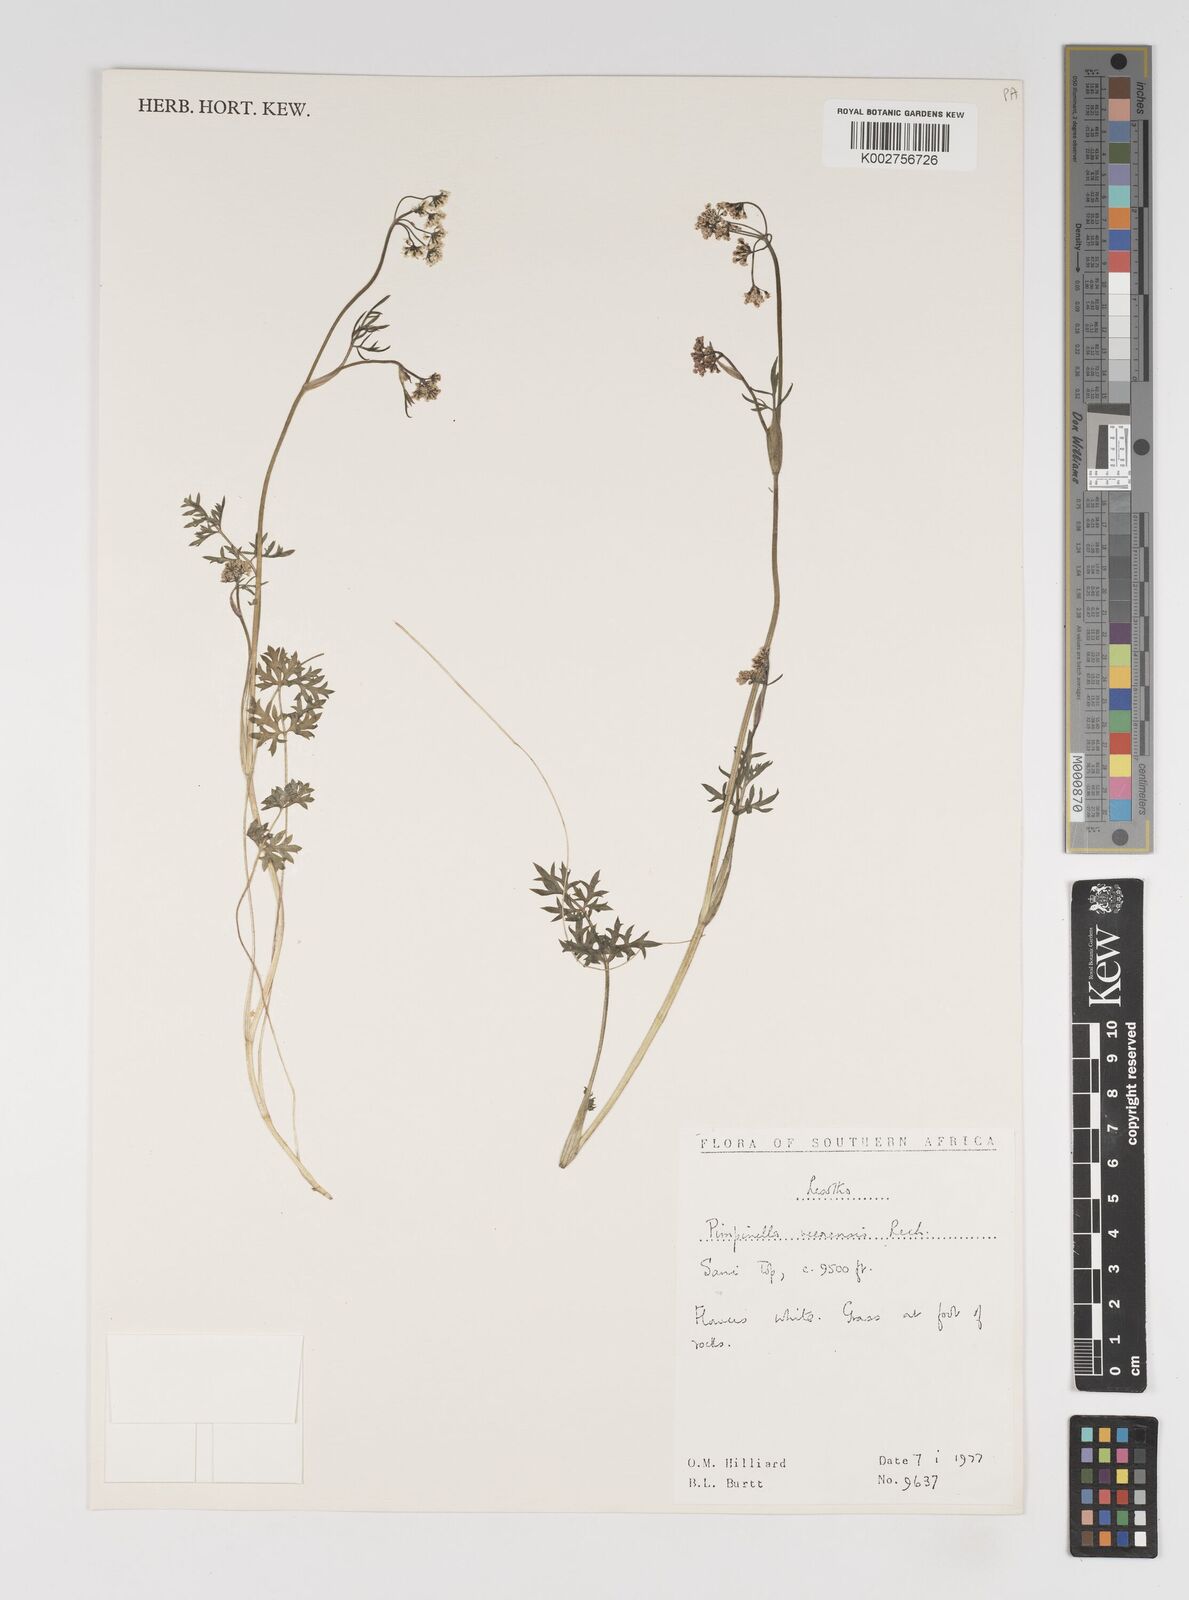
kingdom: Plantae
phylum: Tracheophyta
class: Magnoliopsida
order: Apiales
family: Apiaceae
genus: Pimpinella
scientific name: Pimpinella caffra
